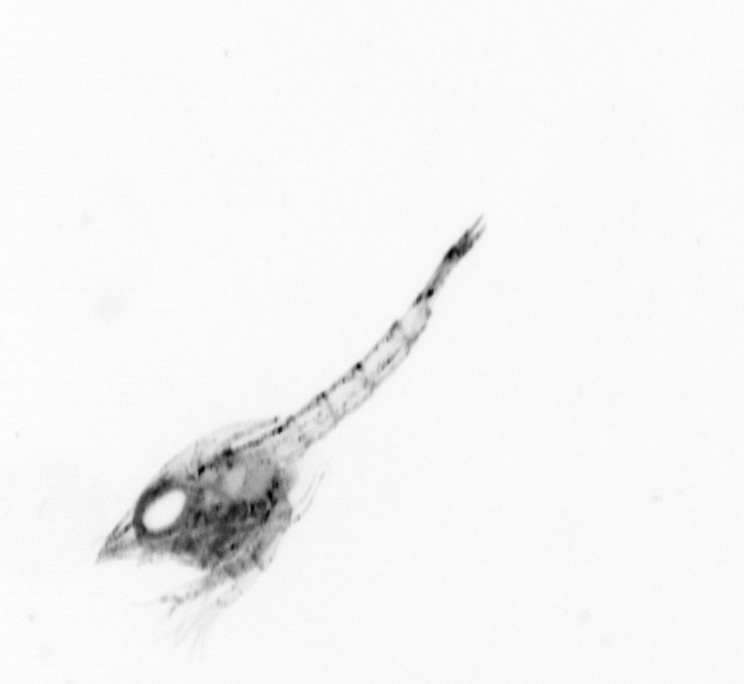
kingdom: Animalia
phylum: Arthropoda
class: Malacostraca
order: Decapoda
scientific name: Decapoda
